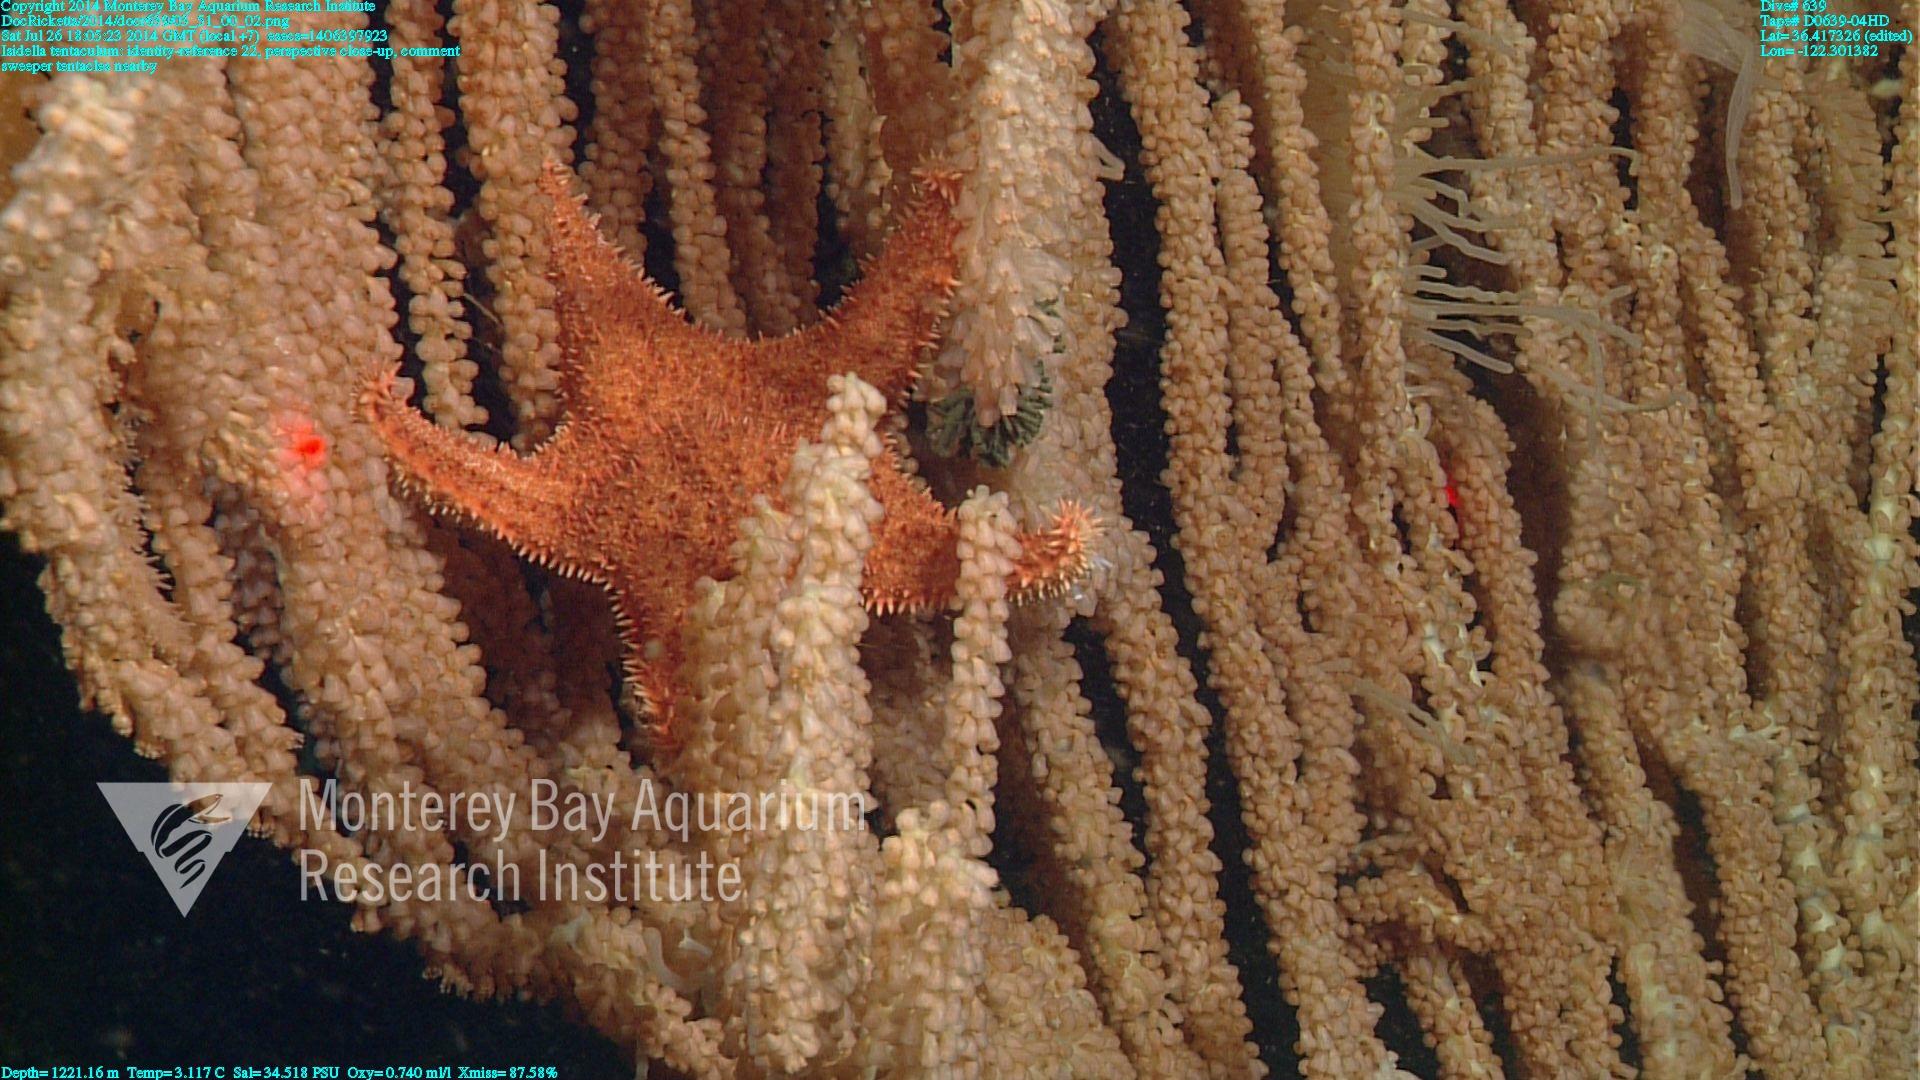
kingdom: Animalia
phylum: Cnidaria
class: Anthozoa
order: Scleralcyonacea
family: Keratoisididae
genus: Isidella
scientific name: Isidella tentaculum
